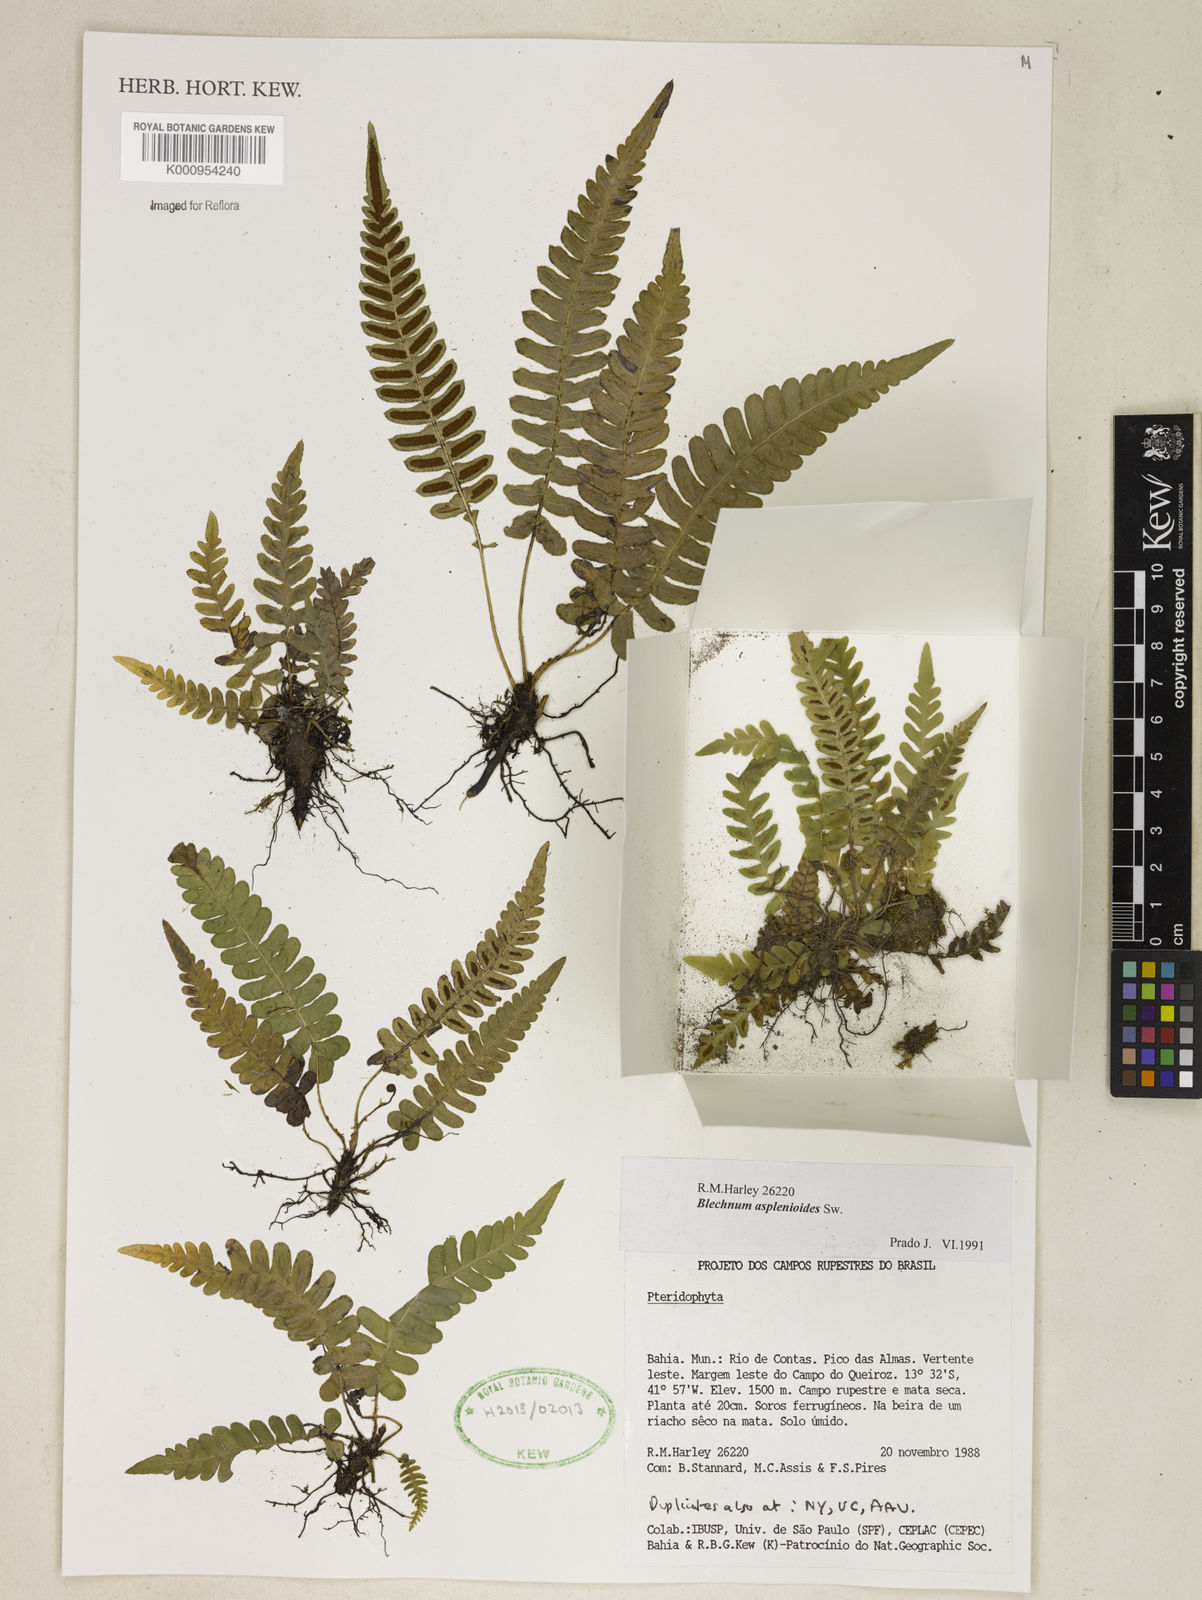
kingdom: Plantae
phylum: Tracheophyta
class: Polypodiopsida
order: Polypodiales
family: Blechnaceae
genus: Blechnum
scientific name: Blechnum
